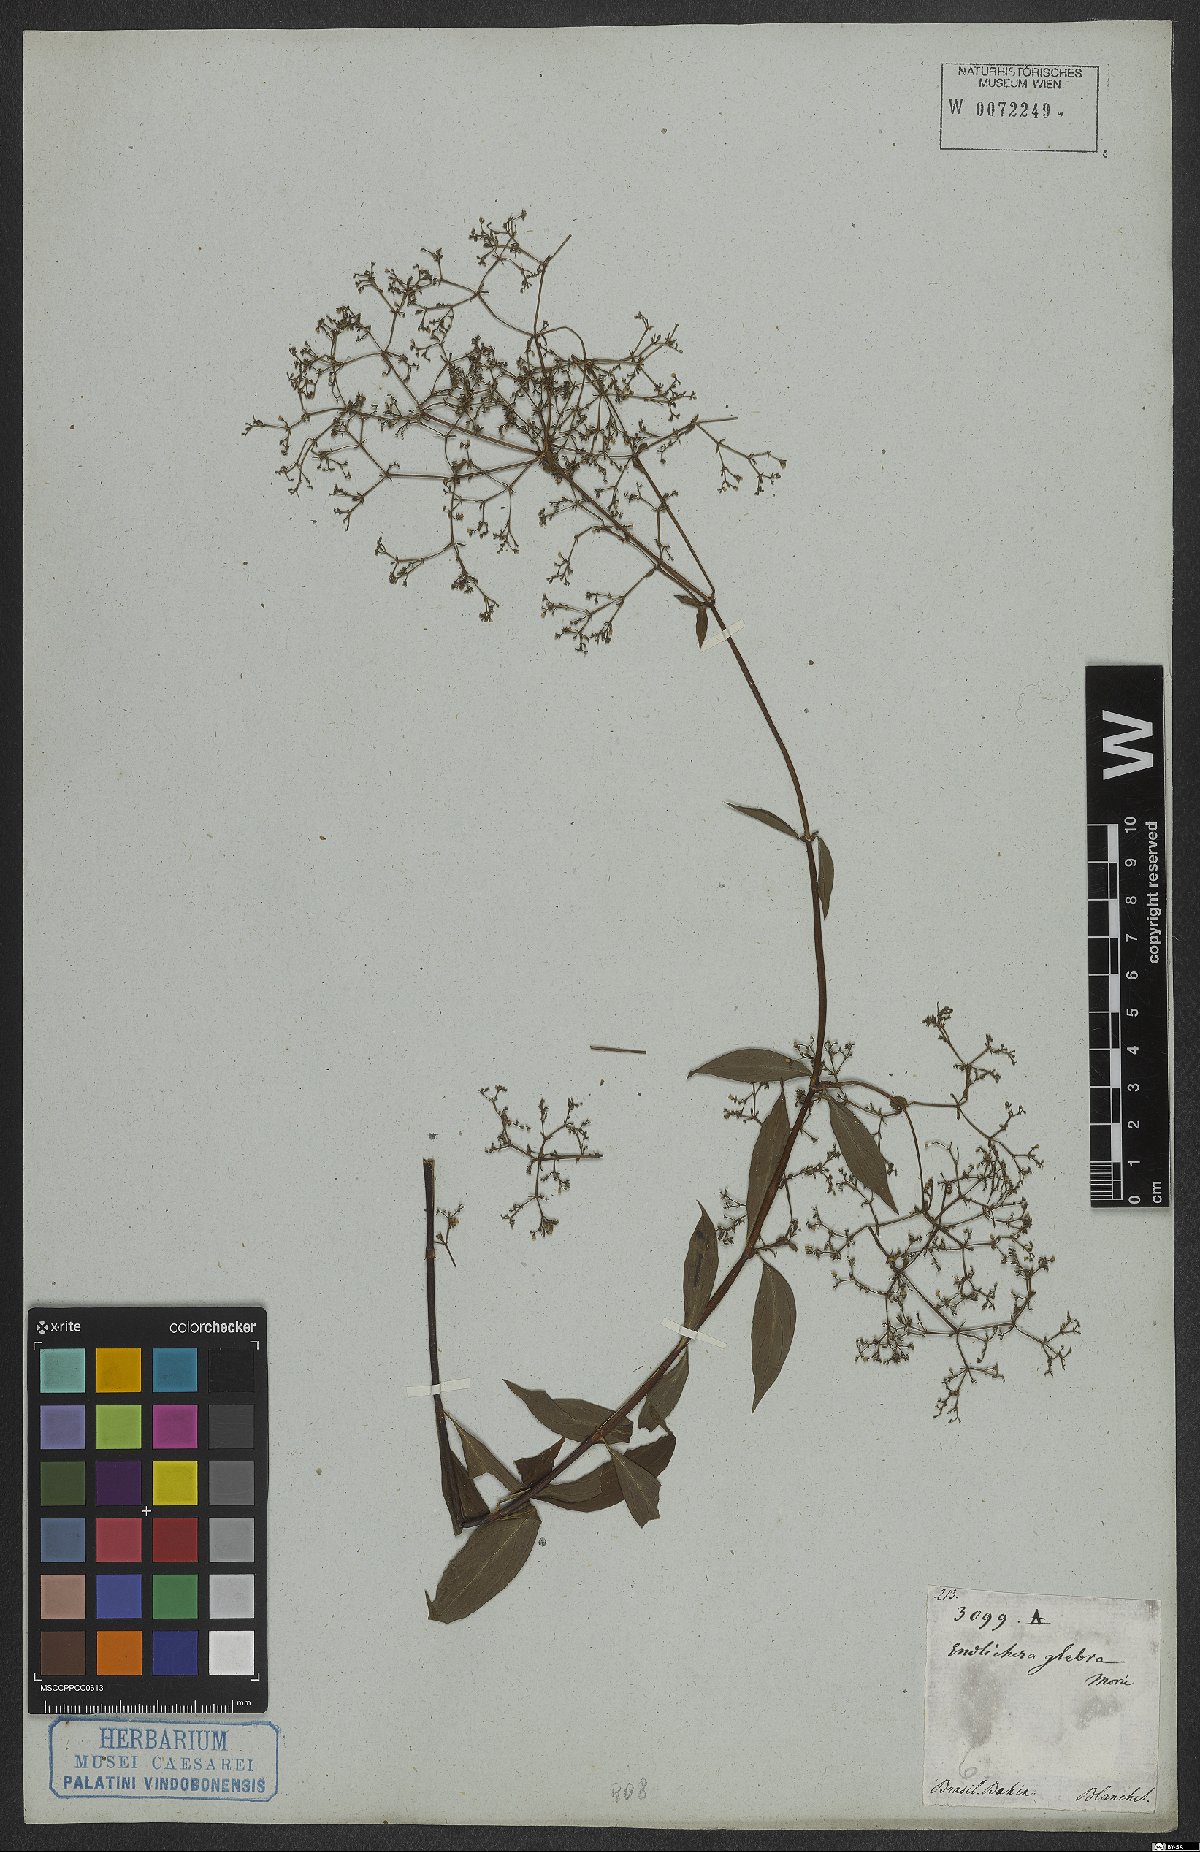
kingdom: Plantae
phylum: Tracheophyta
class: Magnoliopsida
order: Gentianales
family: Rubiaceae
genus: Emmeorhiza
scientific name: Emmeorhiza
